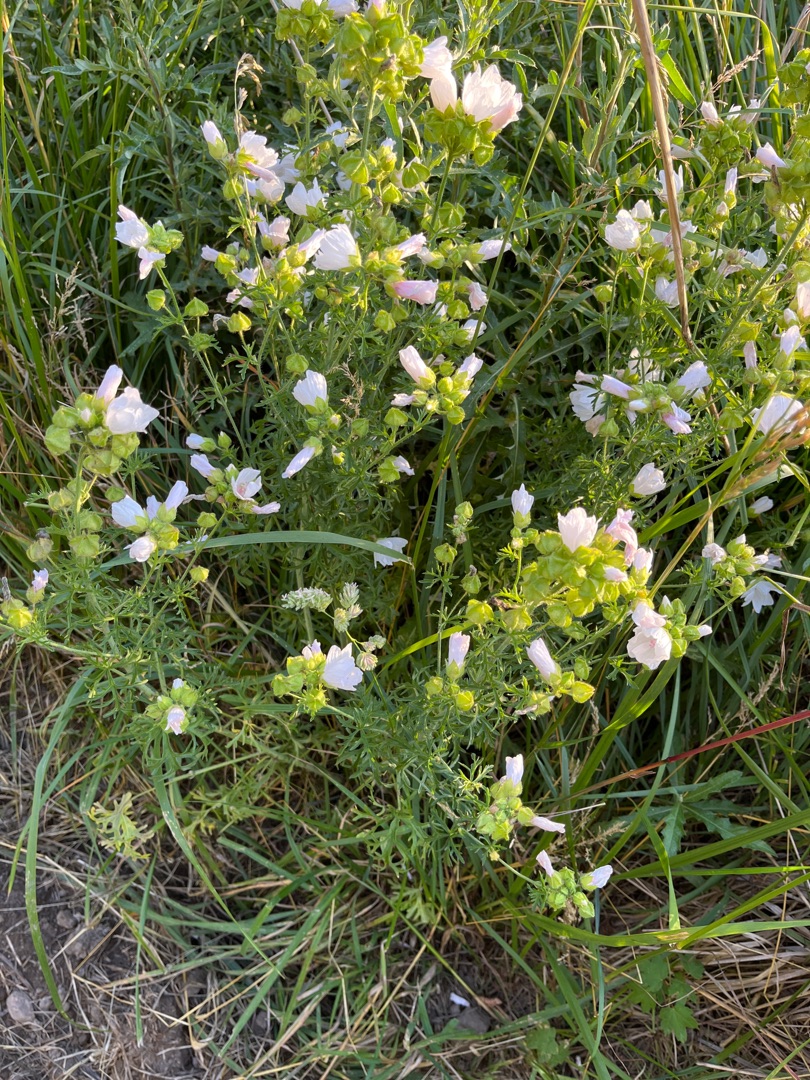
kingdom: Plantae
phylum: Tracheophyta
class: Magnoliopsida
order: Malvales
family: Malvaceae
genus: Malva
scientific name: Malva moschata
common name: Moskus-katost
